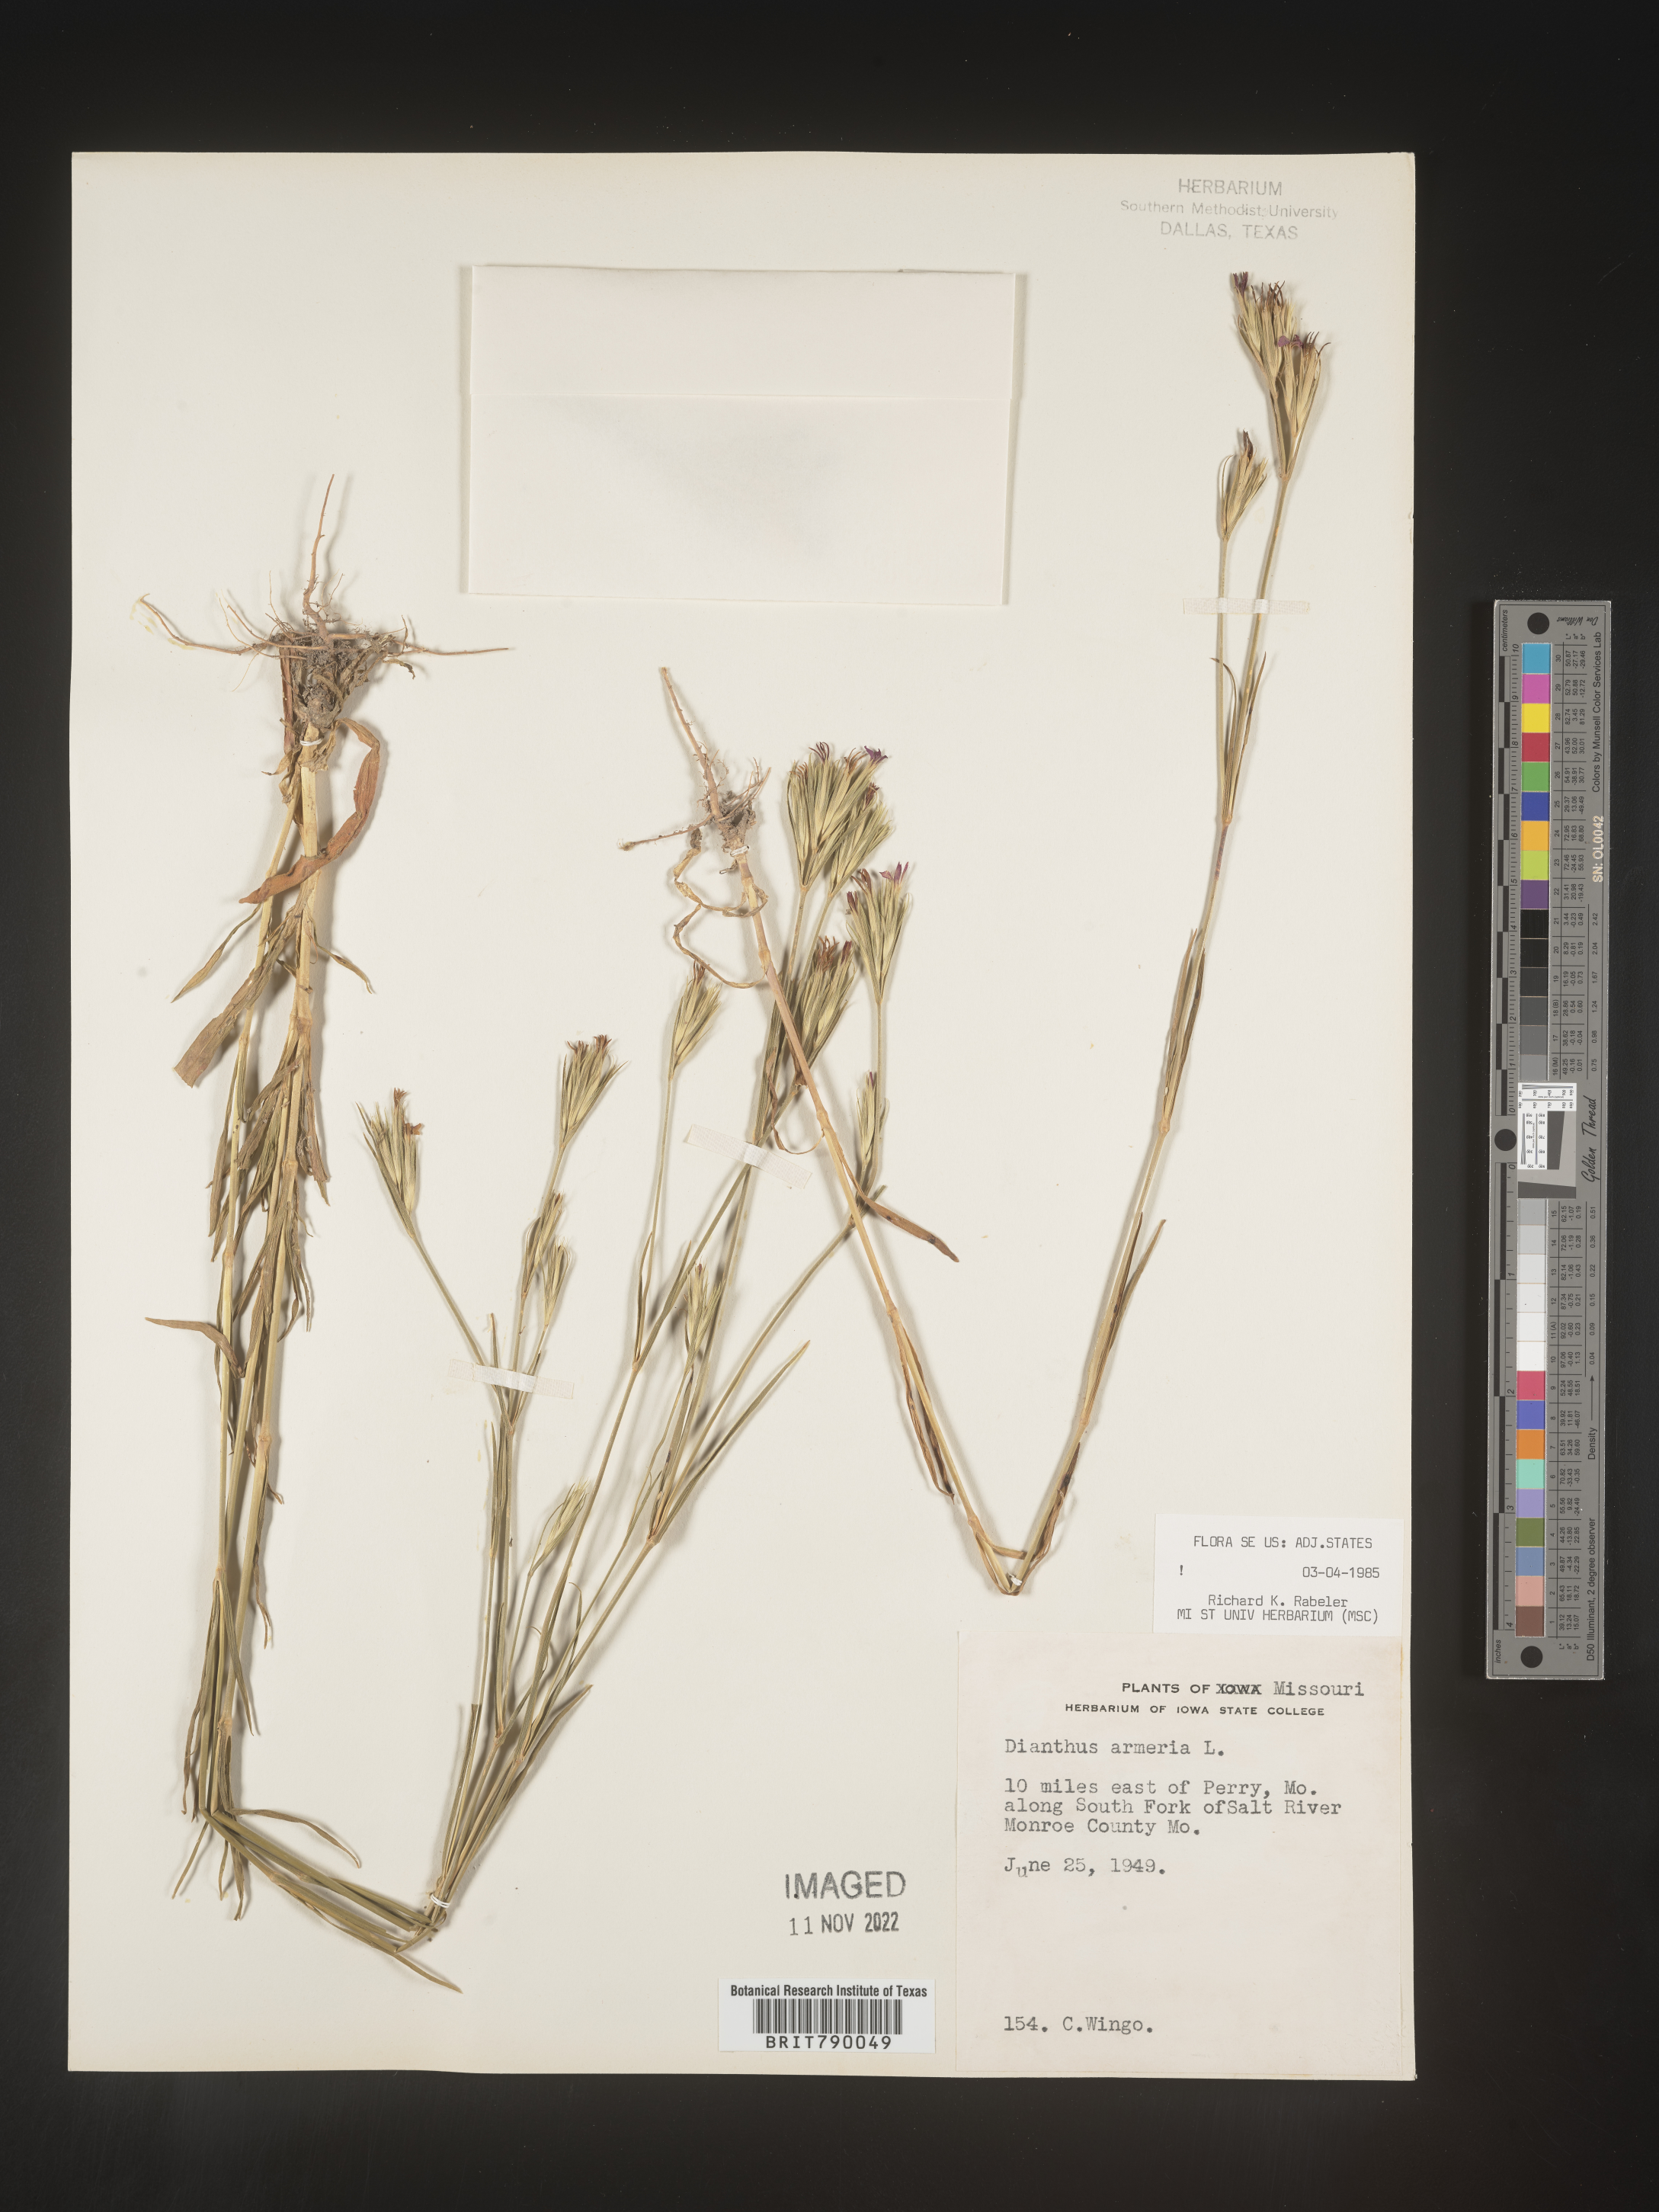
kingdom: Plantae
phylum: Tracheophyta
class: Magnoliopsida
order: Caryophyllales
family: Caryophyllaceae
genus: Dianthus
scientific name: Dianthus armeria
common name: Deptford pink
